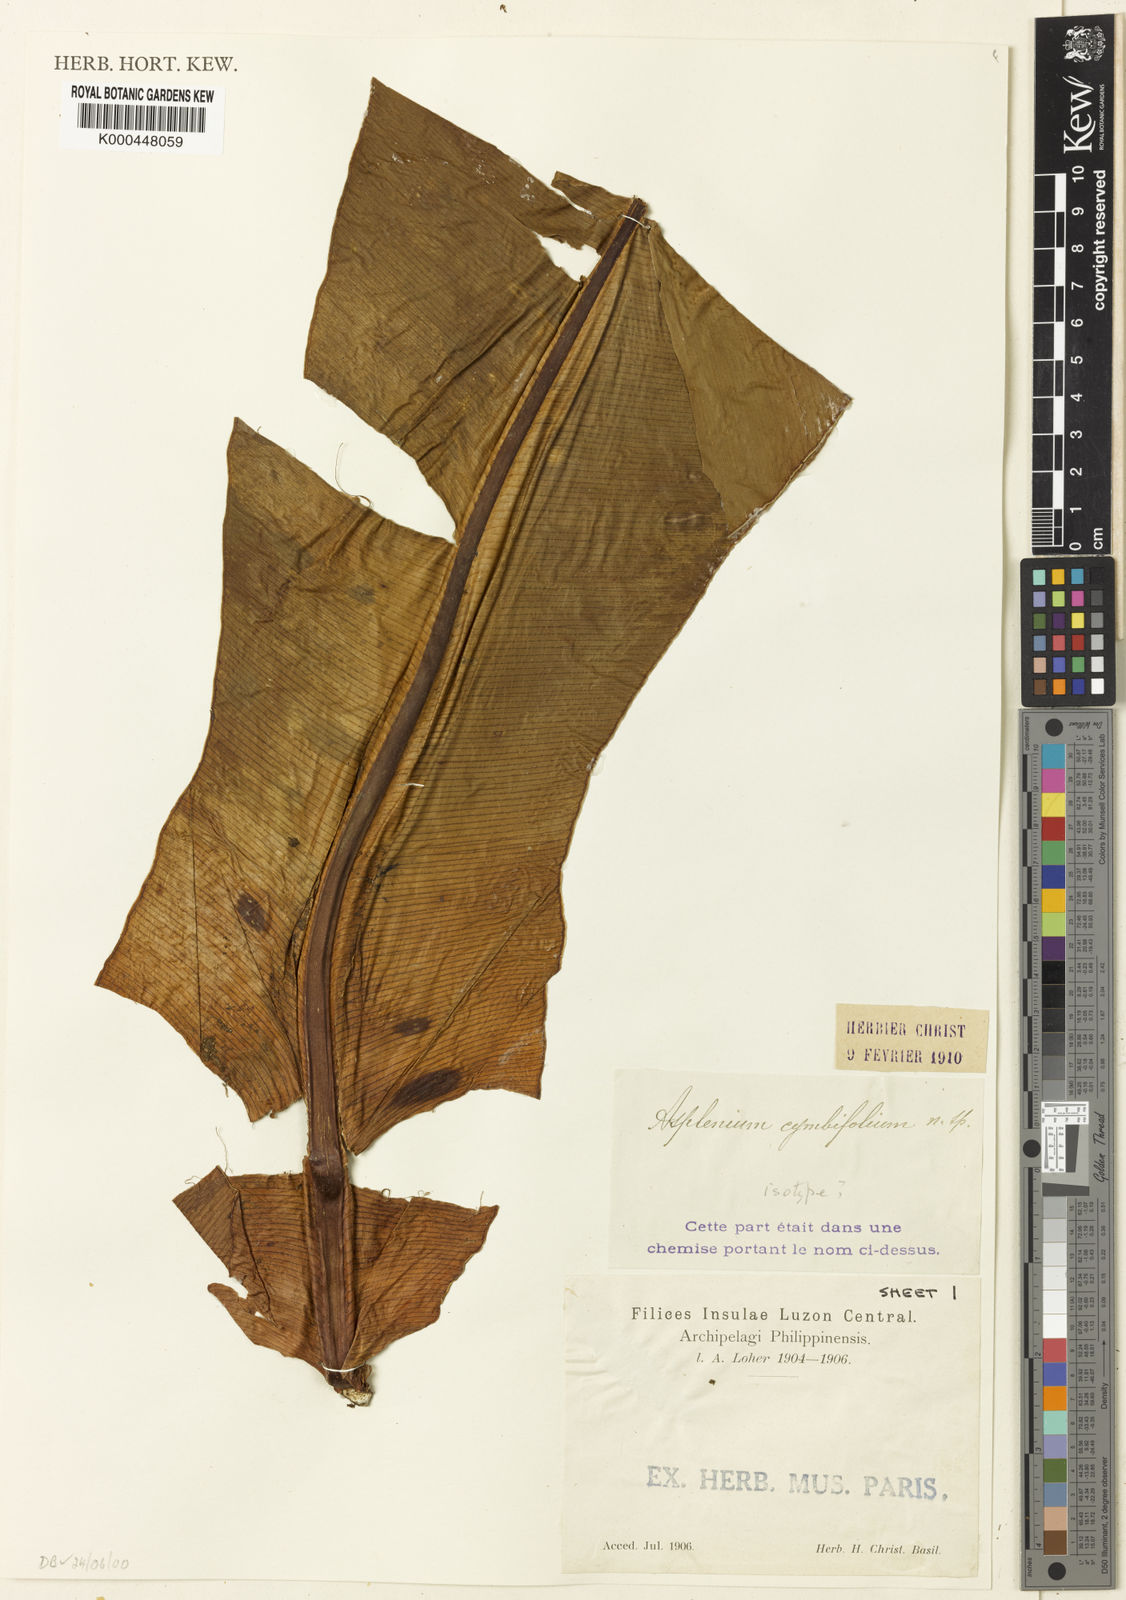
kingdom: Plantae
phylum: Tracheophyta
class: Polypodiopsida
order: Polypodiales
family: Aspleniaceae
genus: Asplenium
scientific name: Asplenium cymbifolium
